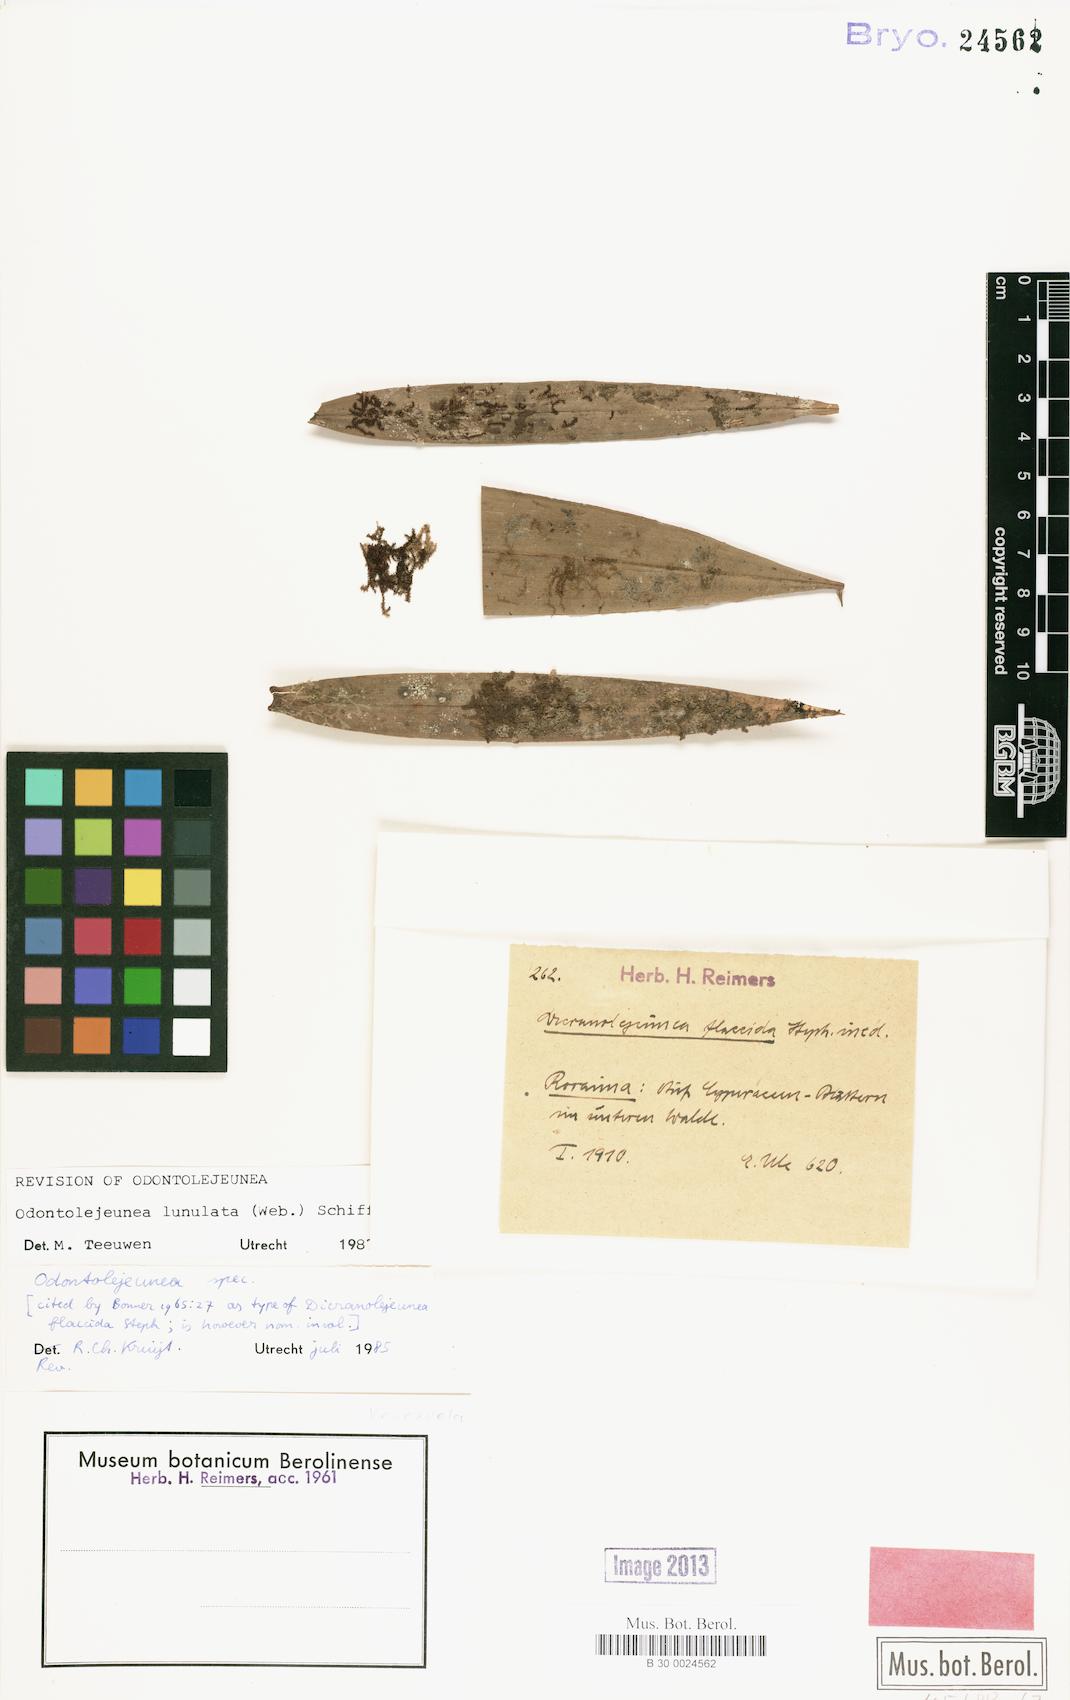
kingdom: Plantae
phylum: Marchantiophyta
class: Jungermanniopsida
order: Porellales
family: Lejeuneaceae
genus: Odontolejeunea
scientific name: Odontolejeunea lunulata
